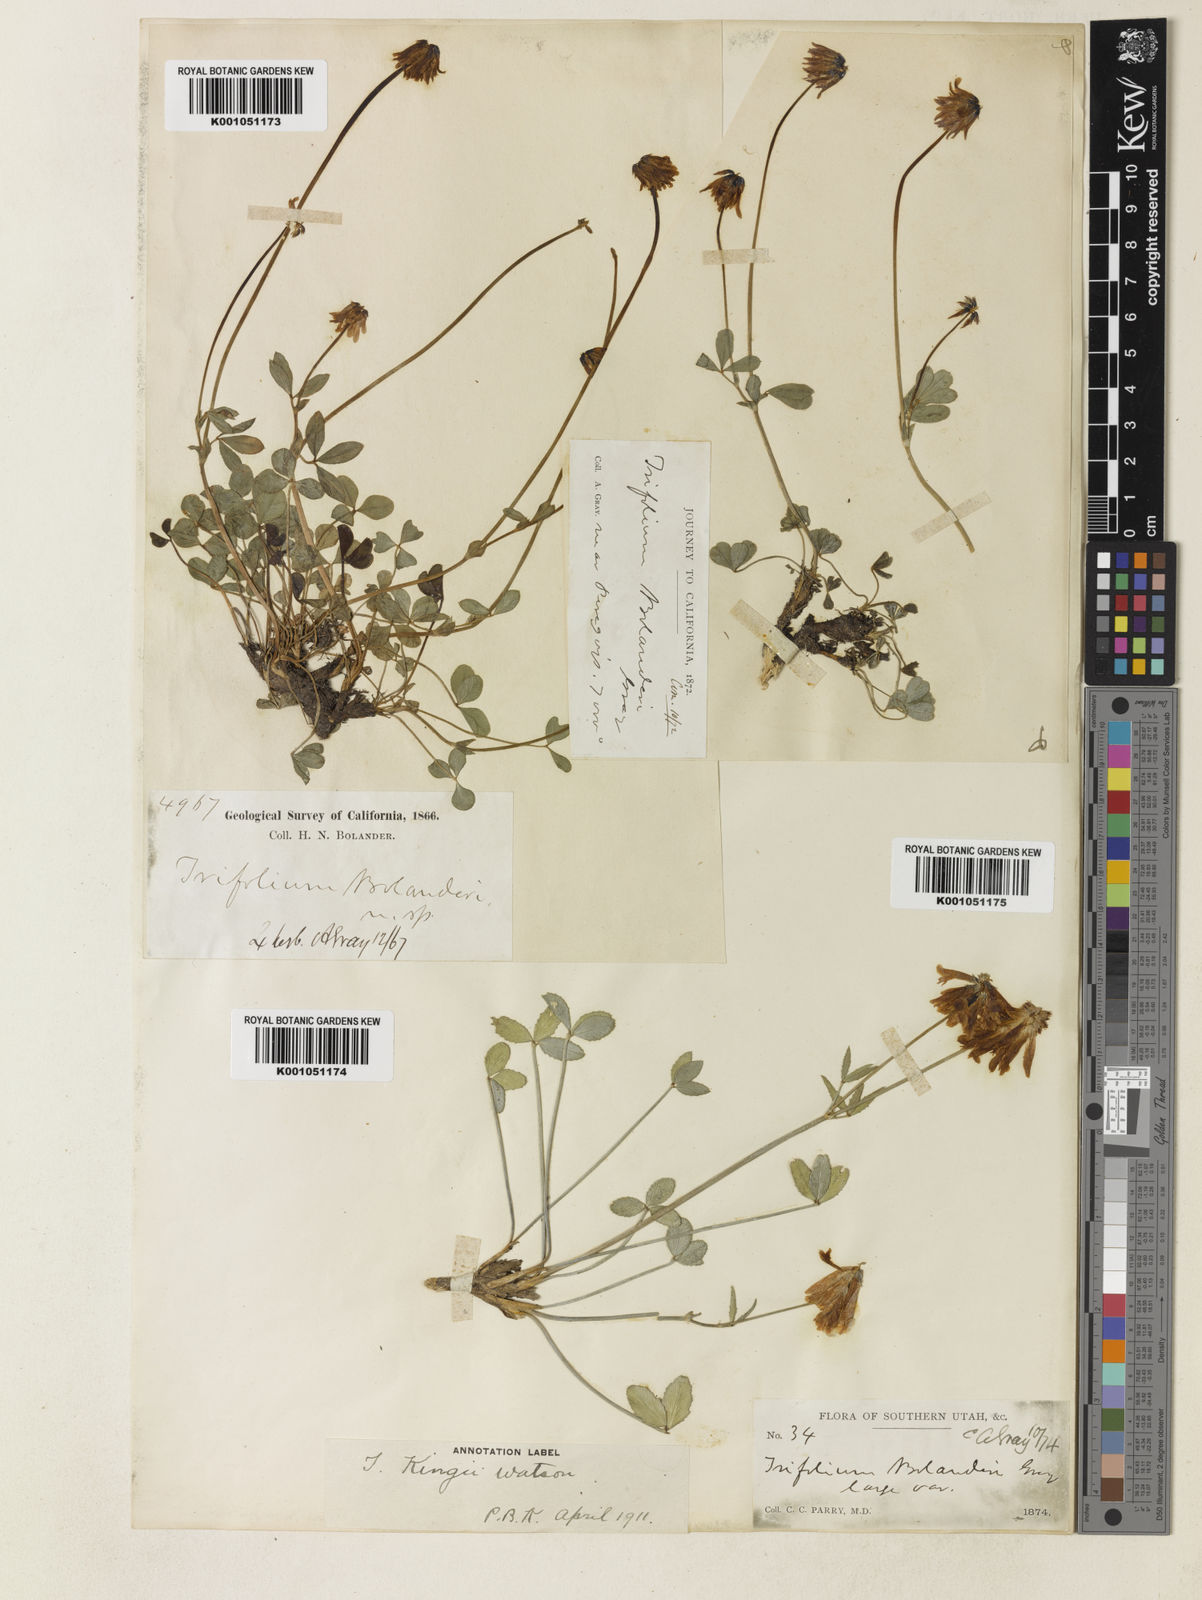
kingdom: Plantae
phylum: Tracheophyta
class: Magnoliopsida
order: Fabales
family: Fabaceae
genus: Trifolium
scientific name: Trifolium bolanderi
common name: Bolander's clover
